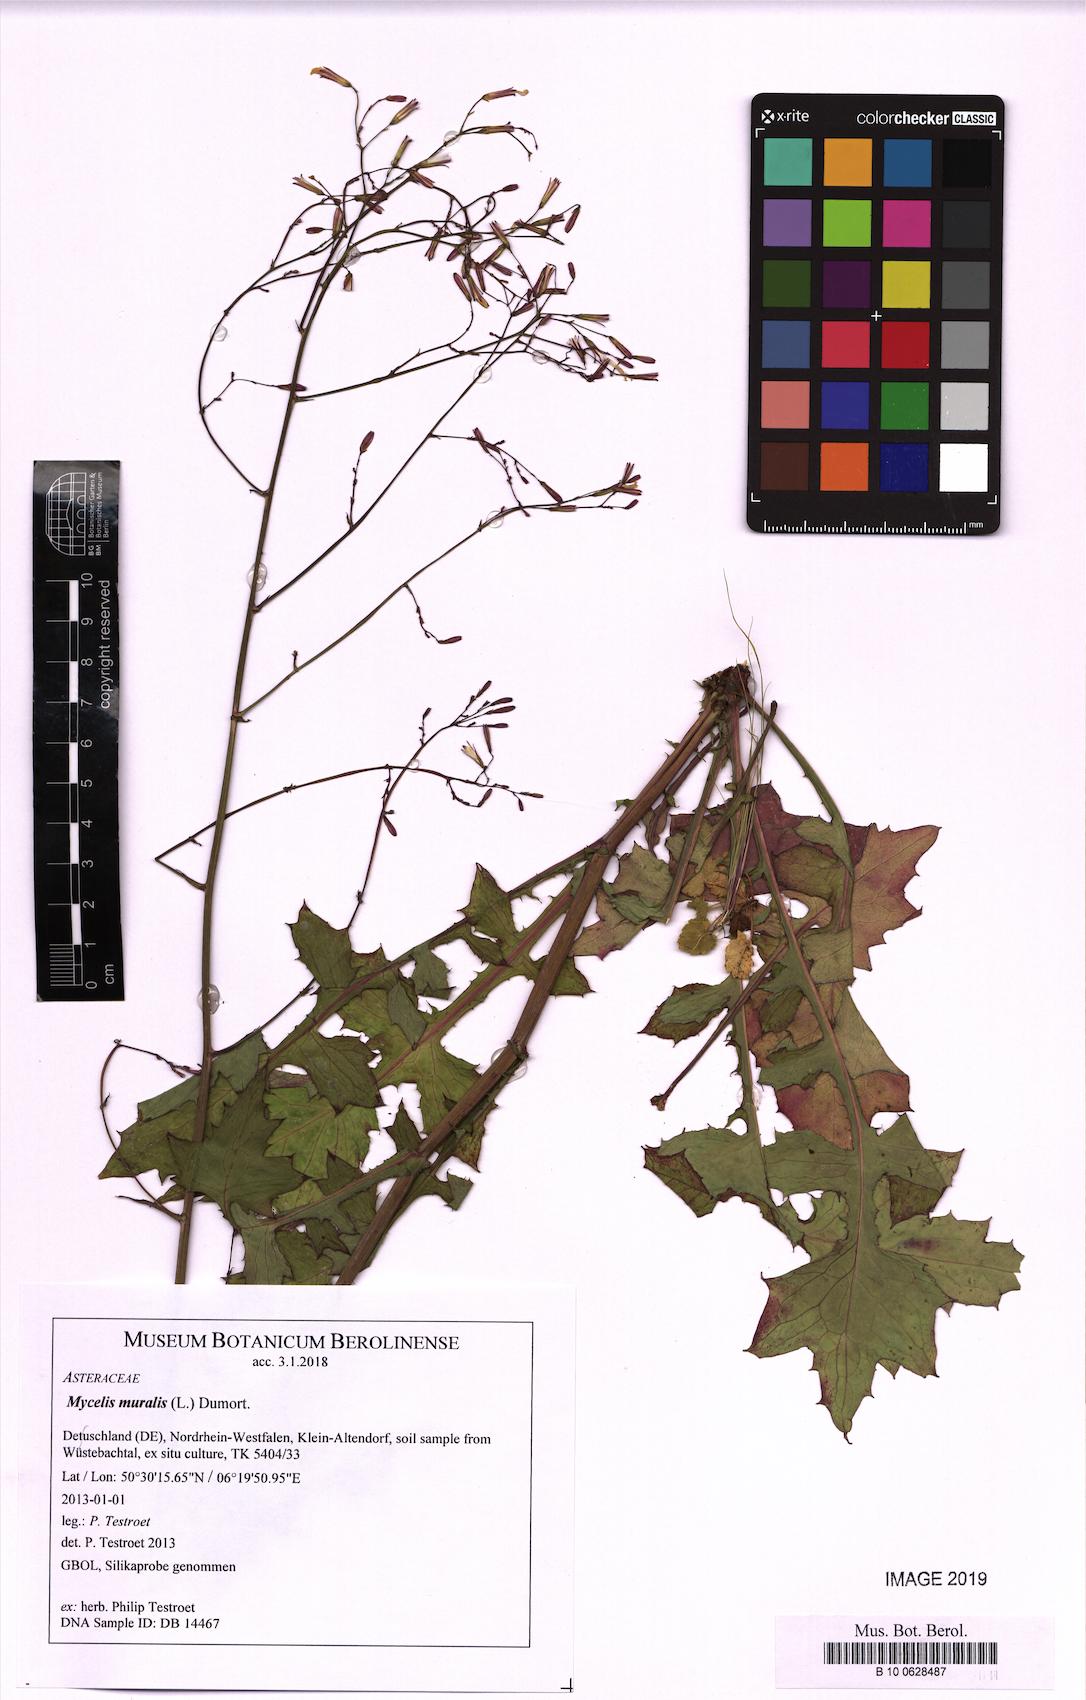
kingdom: Plantae
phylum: Tracheophyta
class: Magnoliopsida
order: Asterales
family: Asteraceae
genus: Mycelis
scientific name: Mycelis muralis
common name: Wall lettuce
